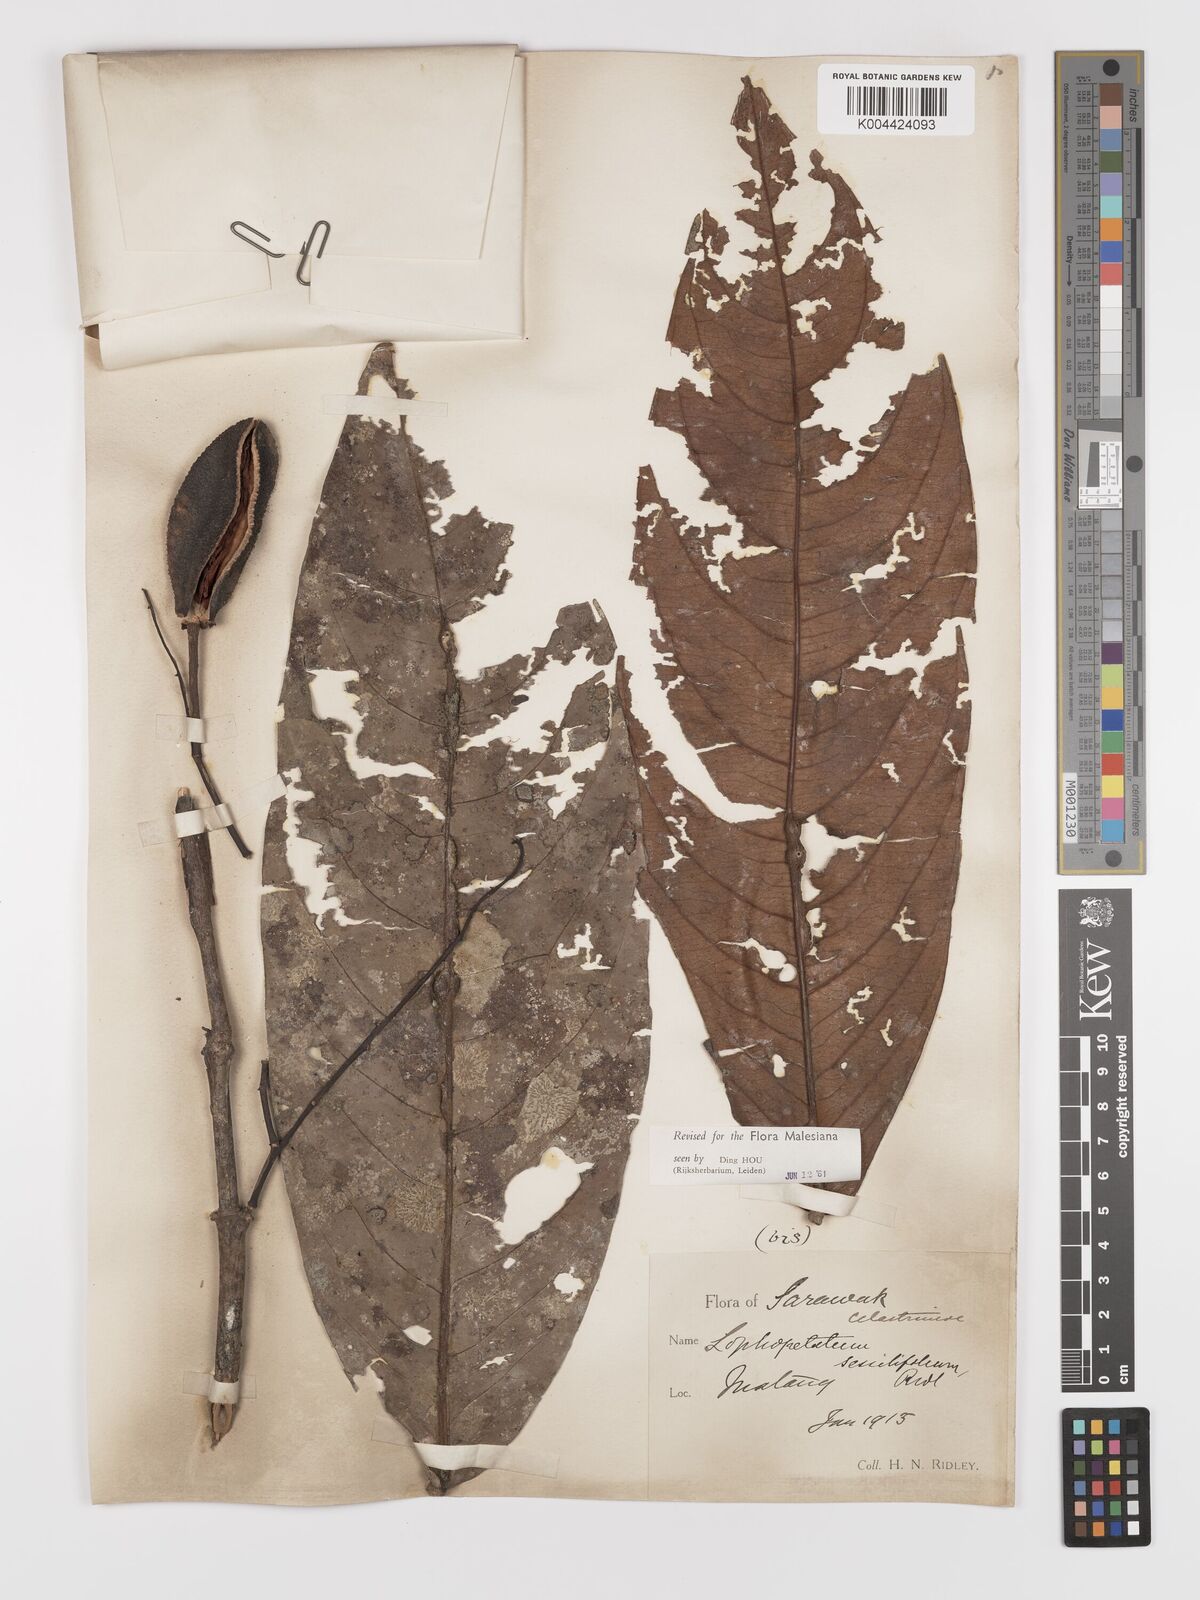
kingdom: Plantae
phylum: Tracheophyta
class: Magnoliopsida
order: Celastrales
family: Celastraceae
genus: Lophopetalum
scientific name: Lophopetalum sessilifolium
